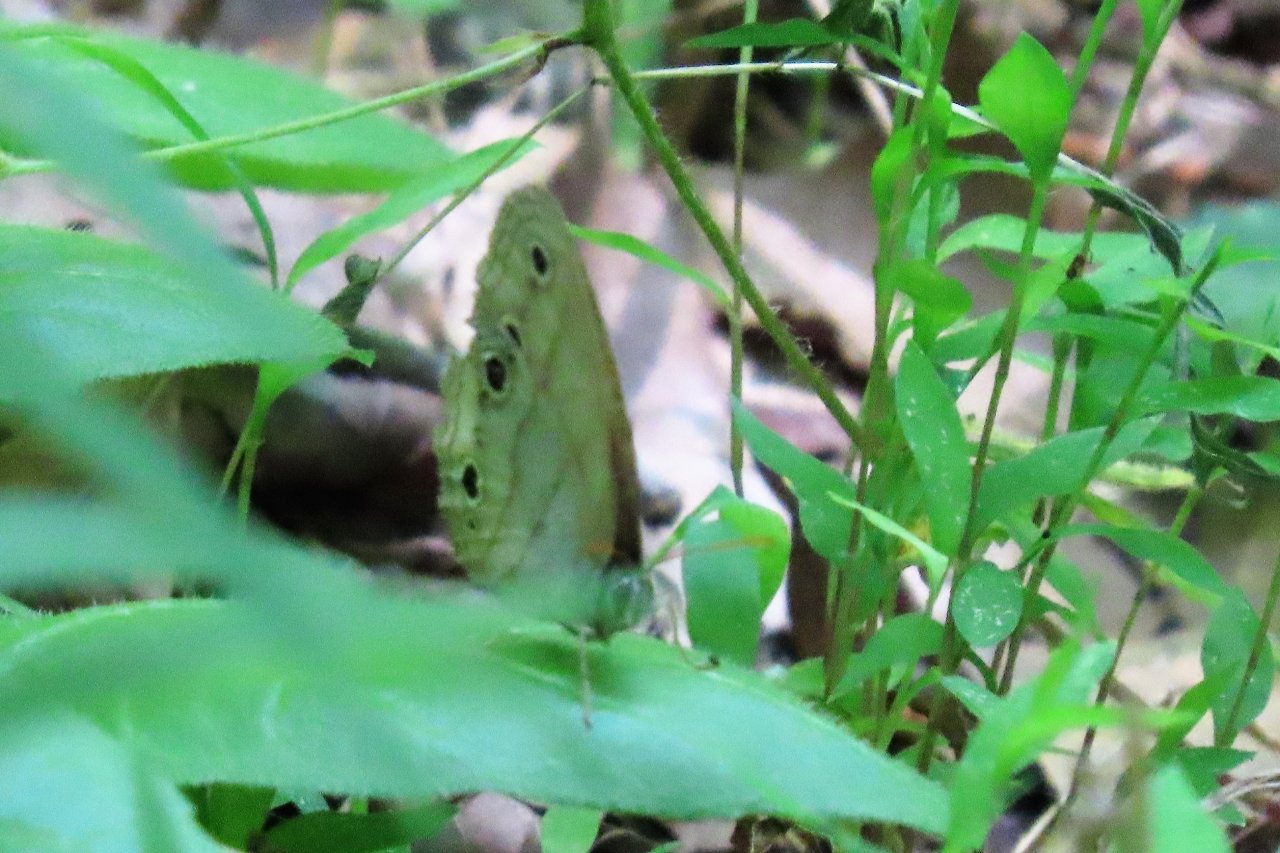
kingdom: Animalia
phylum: Arthropoda
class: Insecta
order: Lepidoptera
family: Nymphalidae
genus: Euptychia
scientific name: Euptychia cymela
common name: Little Wood Satyr
